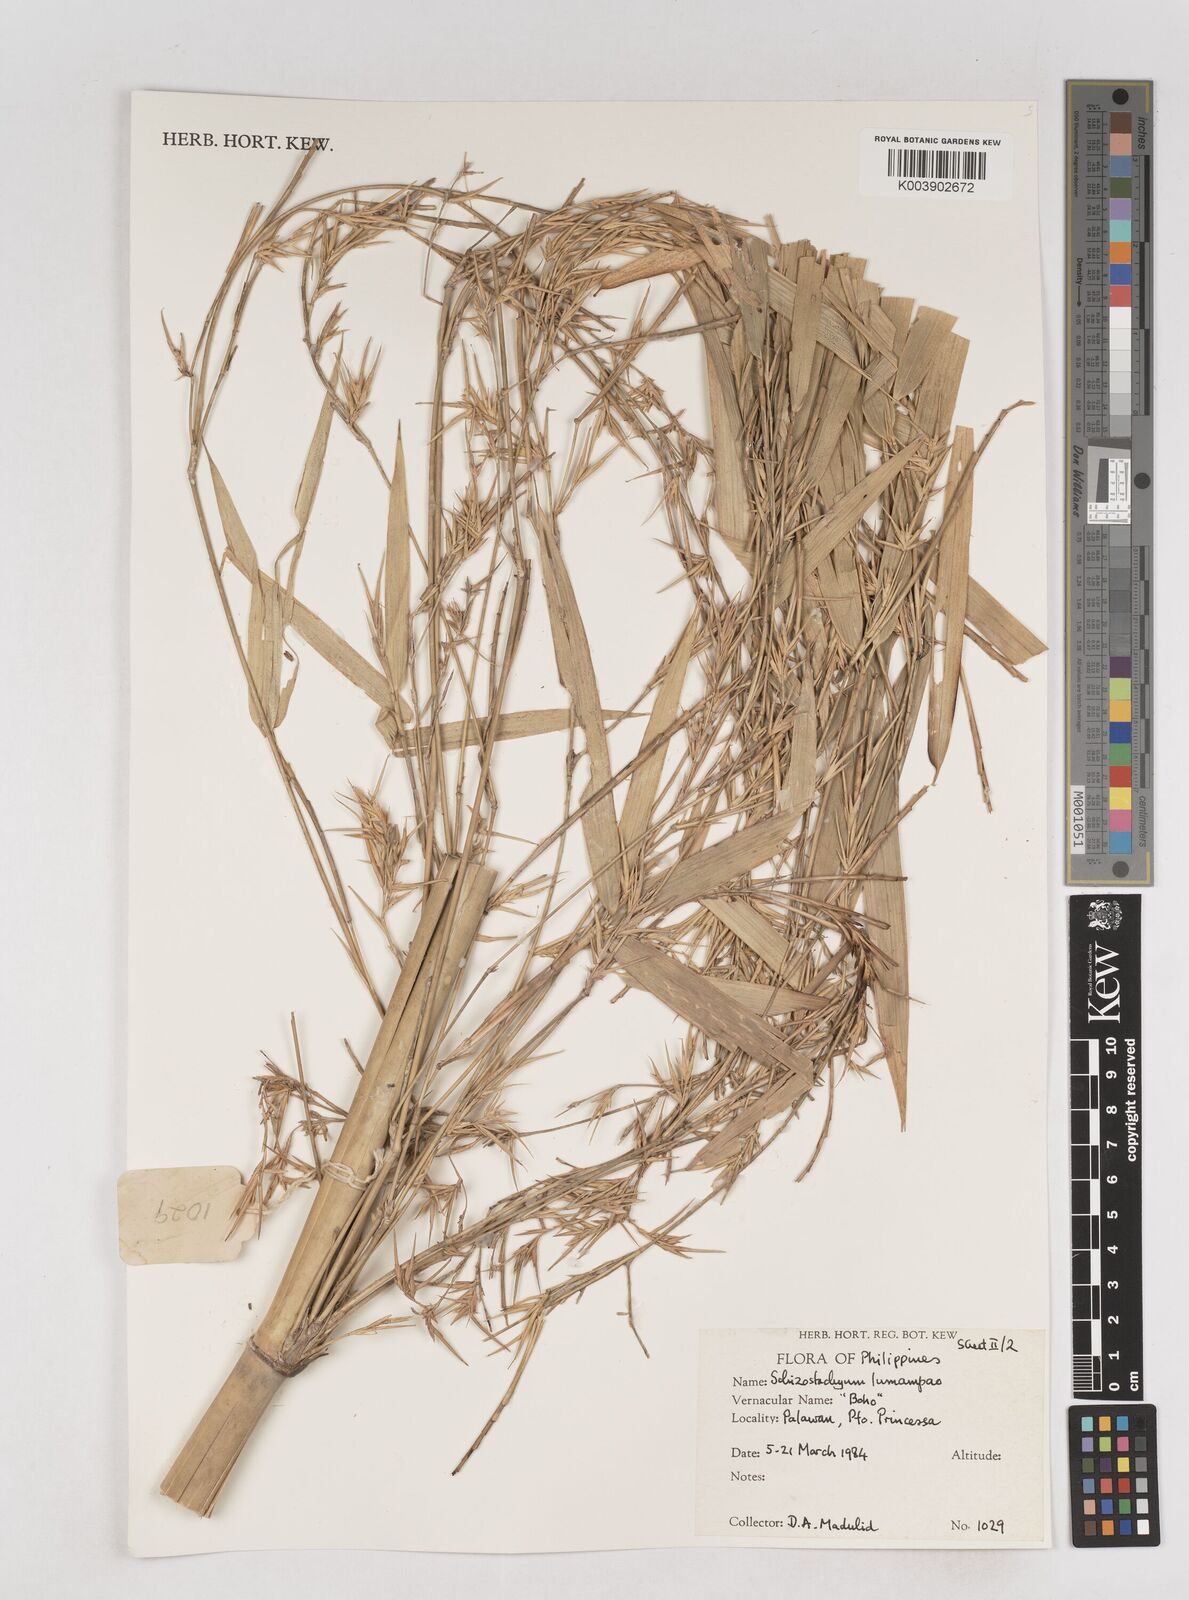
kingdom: Plantae
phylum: Tracheophyta
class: Liliopsida
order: Poales
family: Poaceae
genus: Schizostachyum
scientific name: Schizostachyum lumampao
